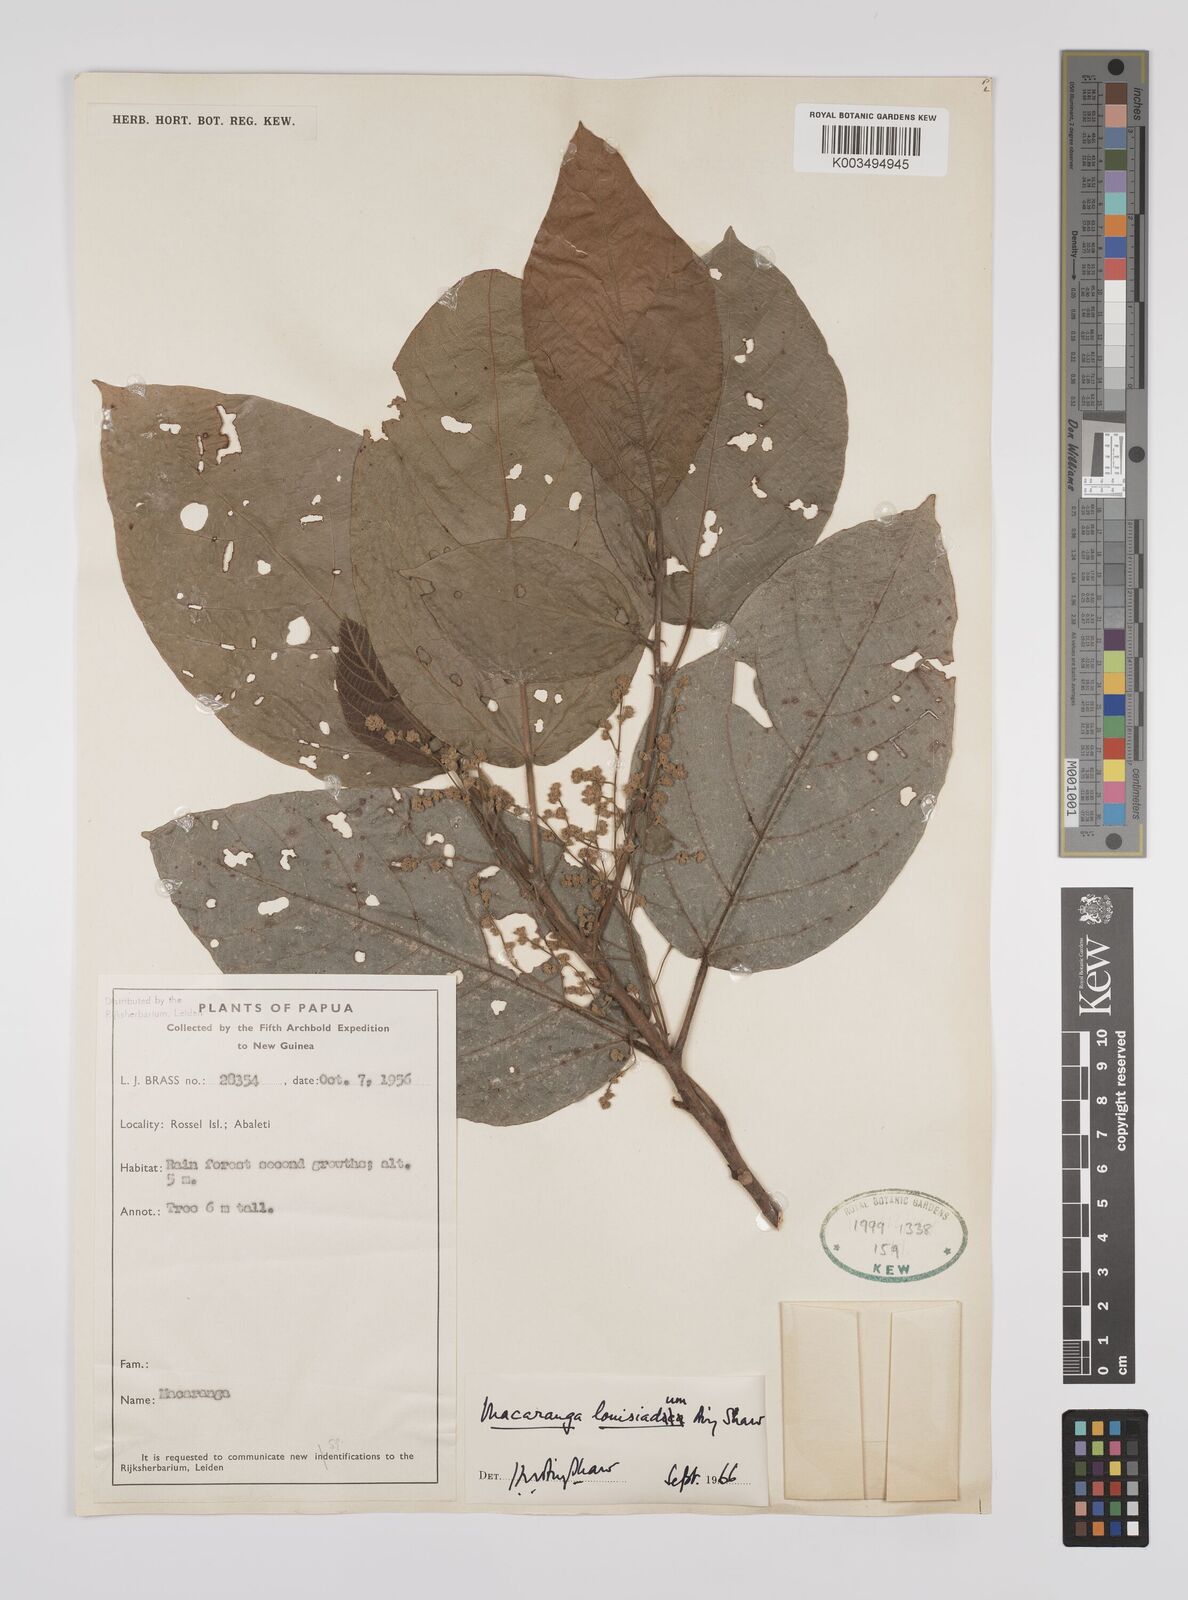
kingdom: Plantae
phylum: Tracheophyta
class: Magnoliopsida
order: Malpighiales
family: Euphorbiaceae
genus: Macaranga
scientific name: Macaranga louisiadum
